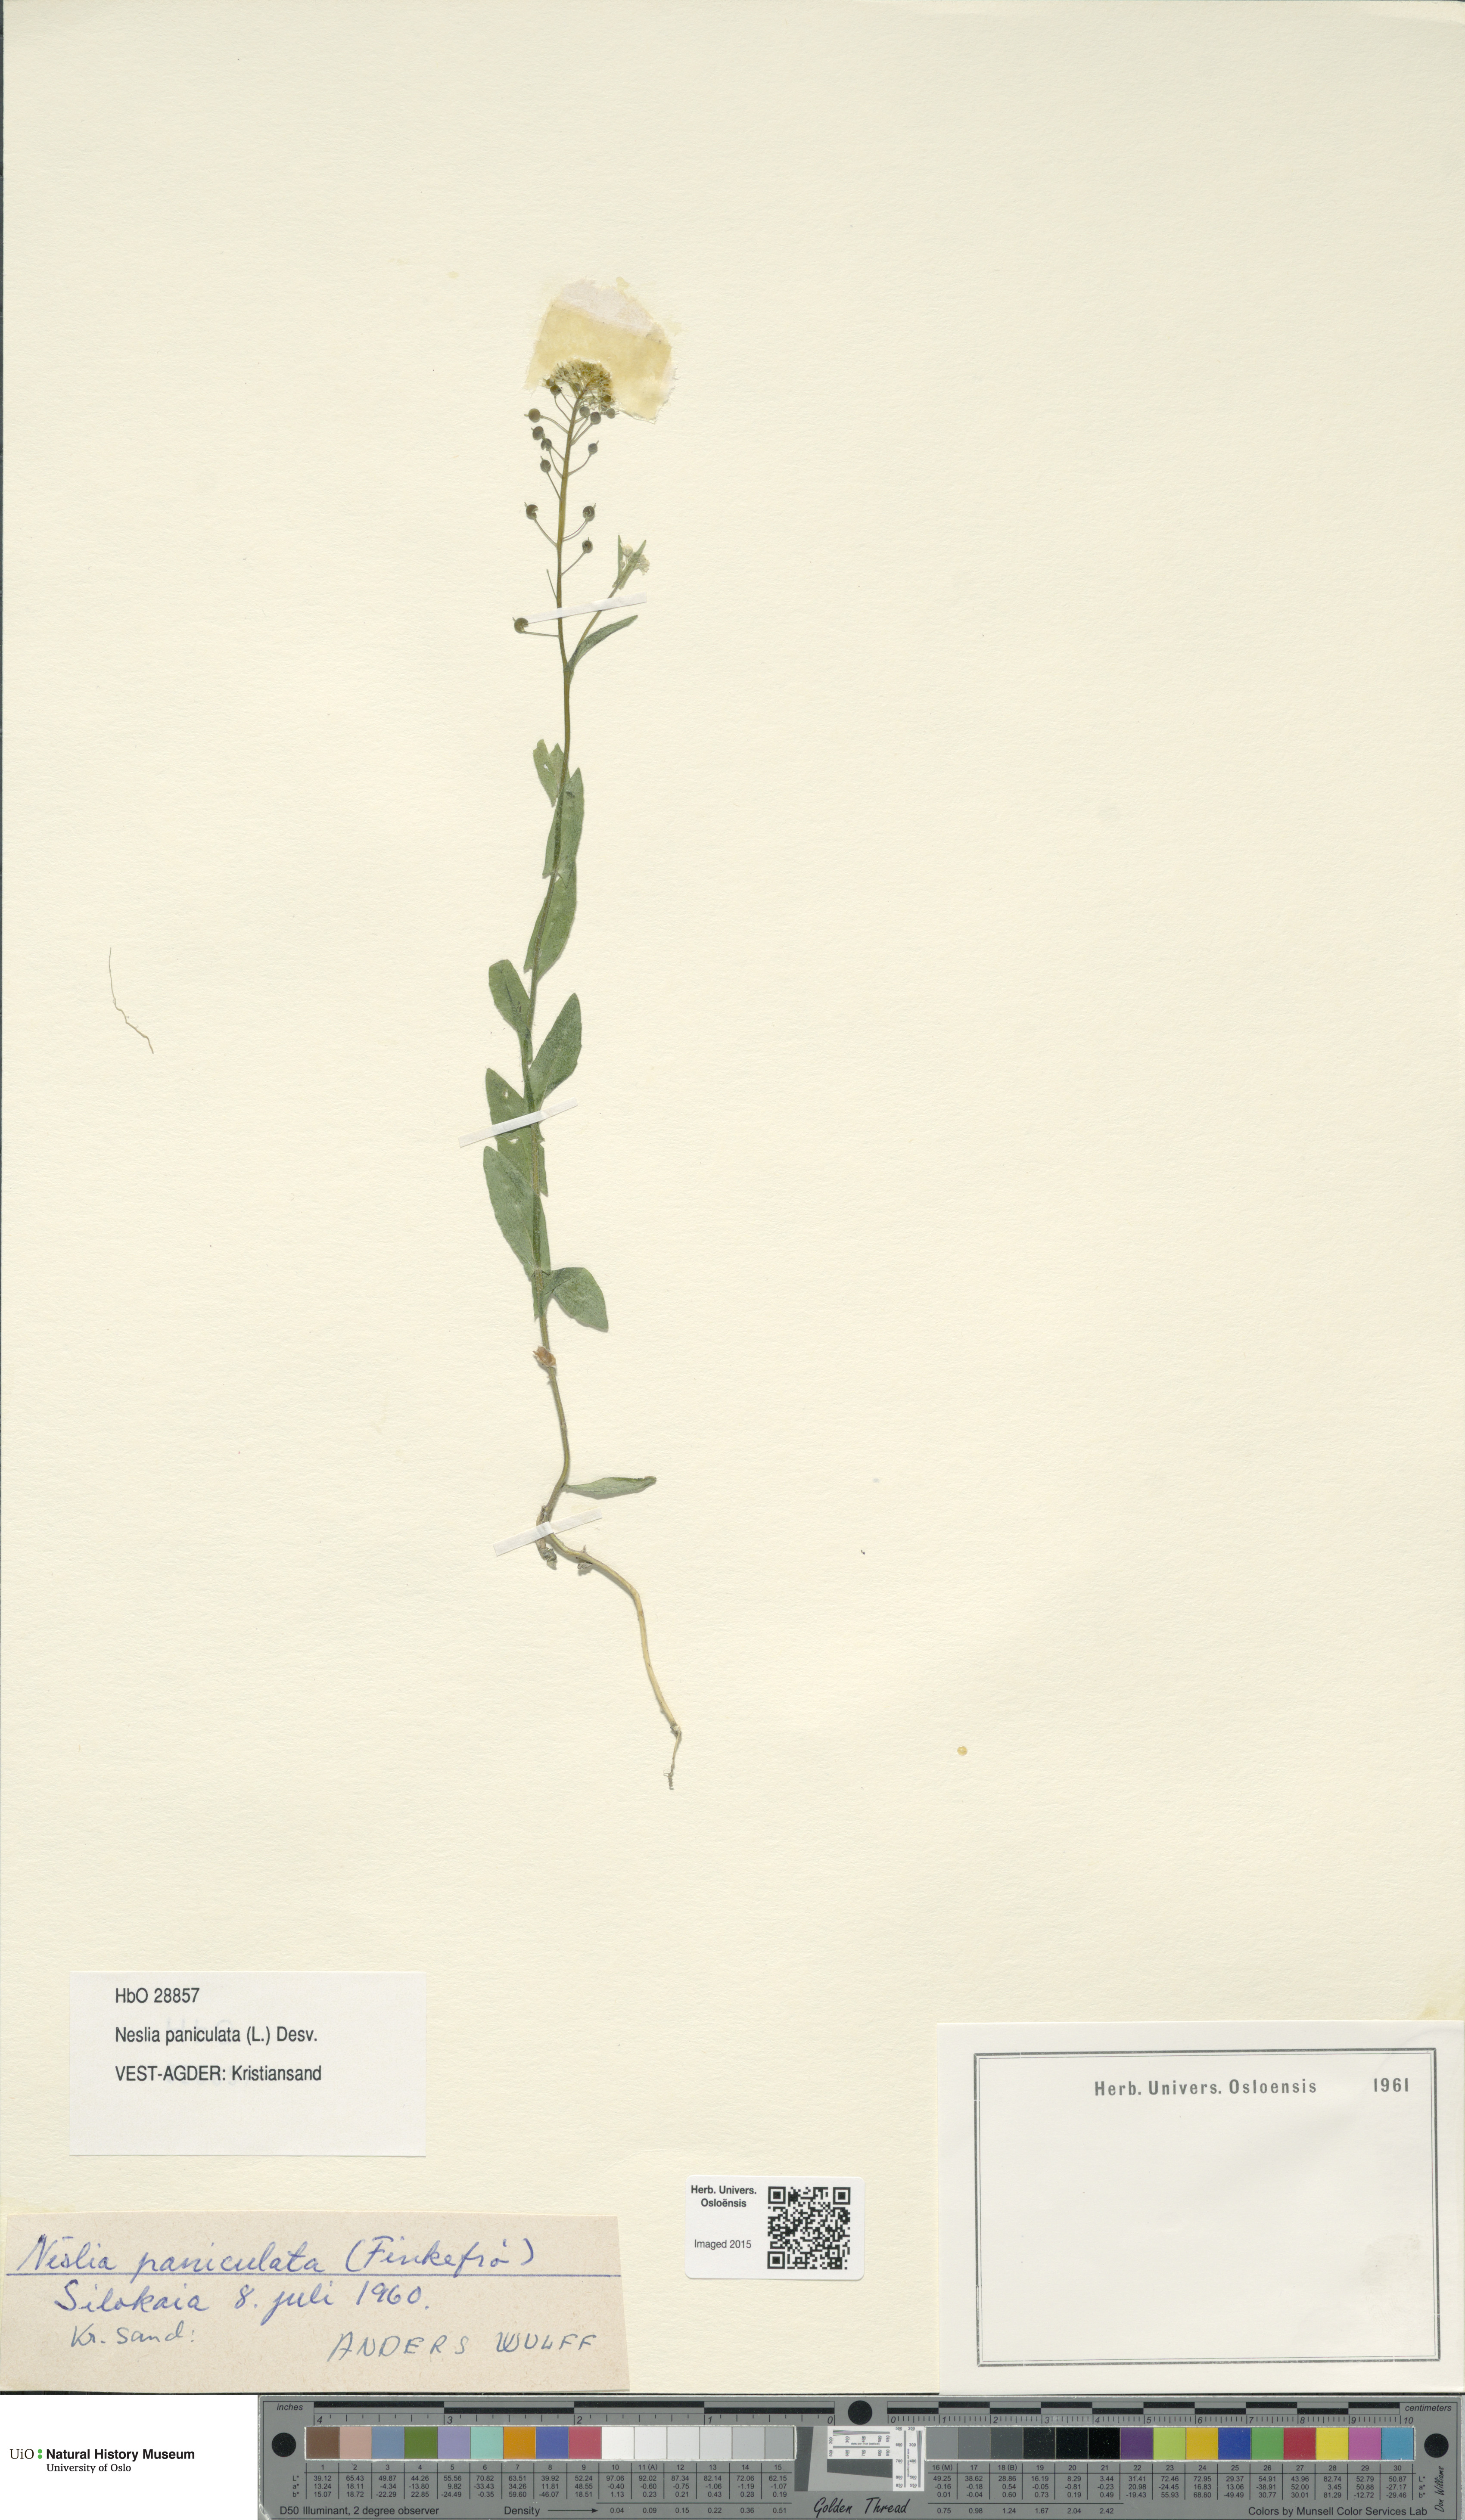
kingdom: Plantae
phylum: Tracheophyta
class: Magnoliopsida
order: Brassicales
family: Brassicaceae
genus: Neslia
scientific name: Neslia paniculata
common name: Ball mustard
